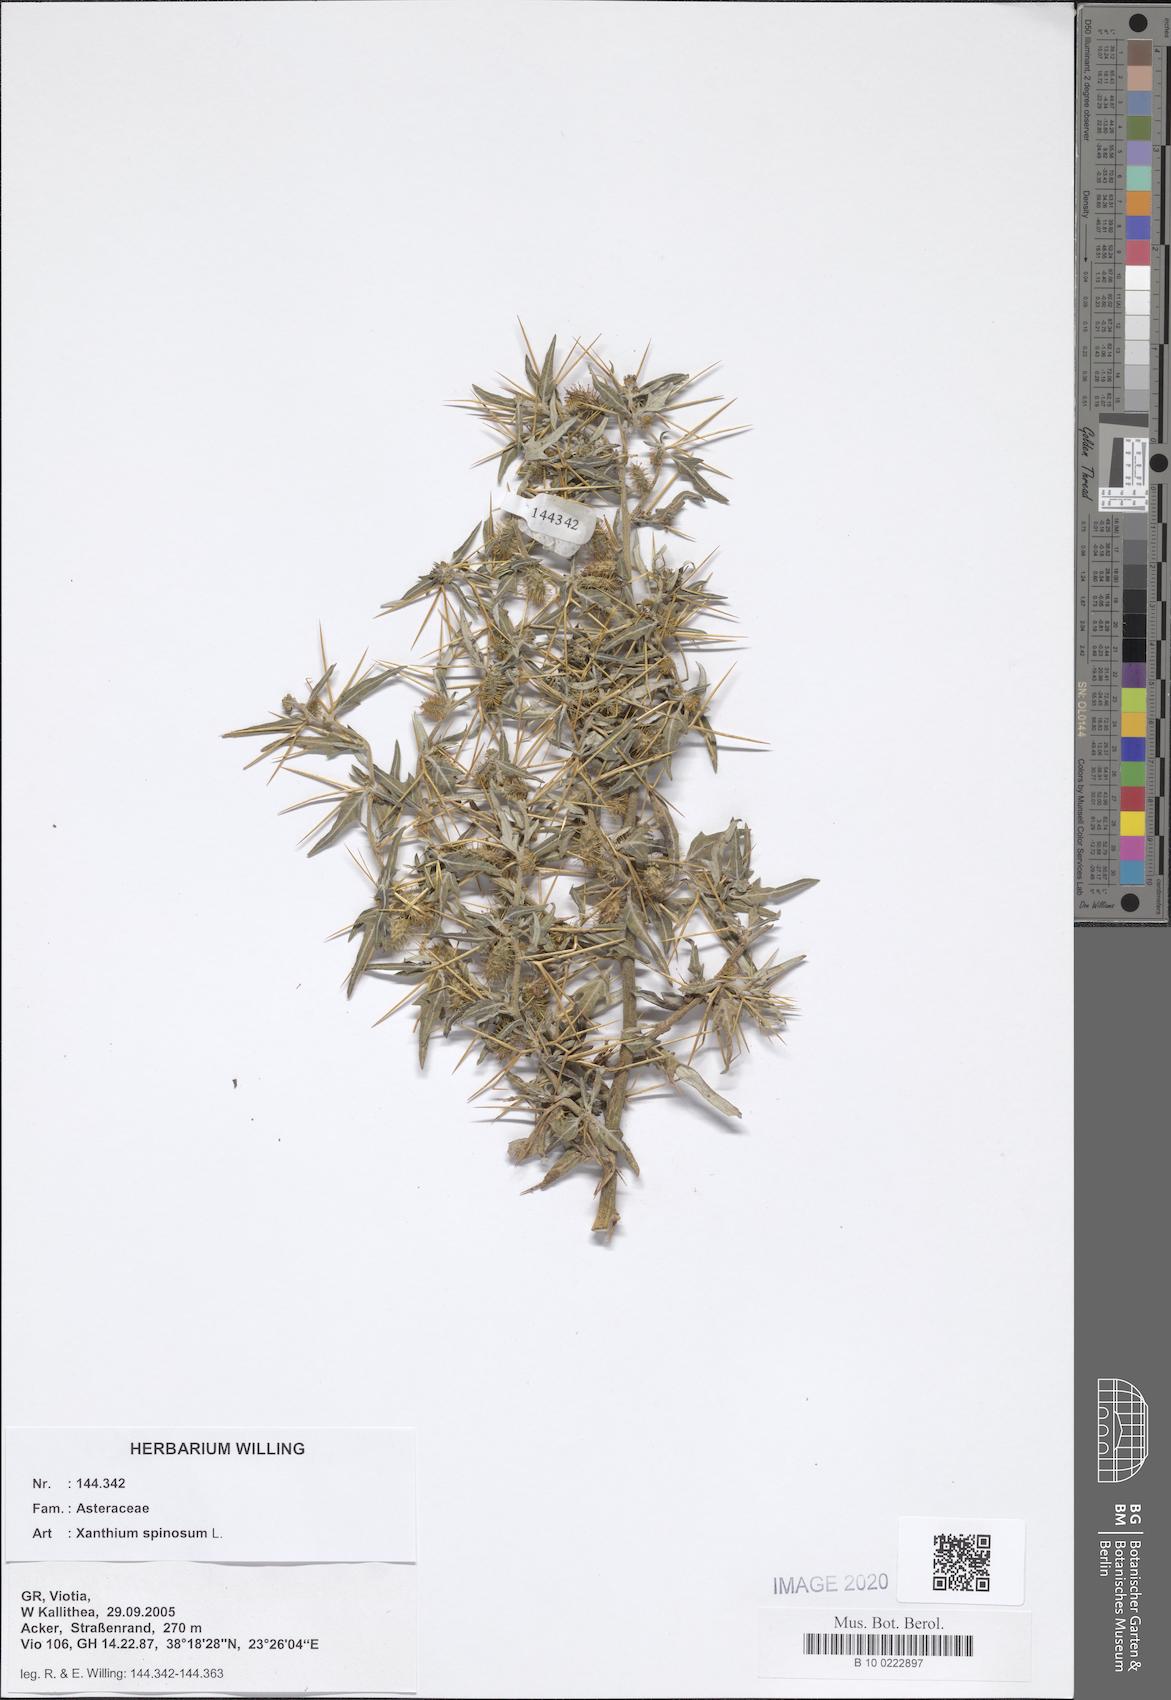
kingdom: Plantae
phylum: Tracheophyta
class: Magnoliopsida
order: Asterales
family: Asteraceae
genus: Xanthium
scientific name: Xanthium spinosum
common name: Spiny cocklebur
